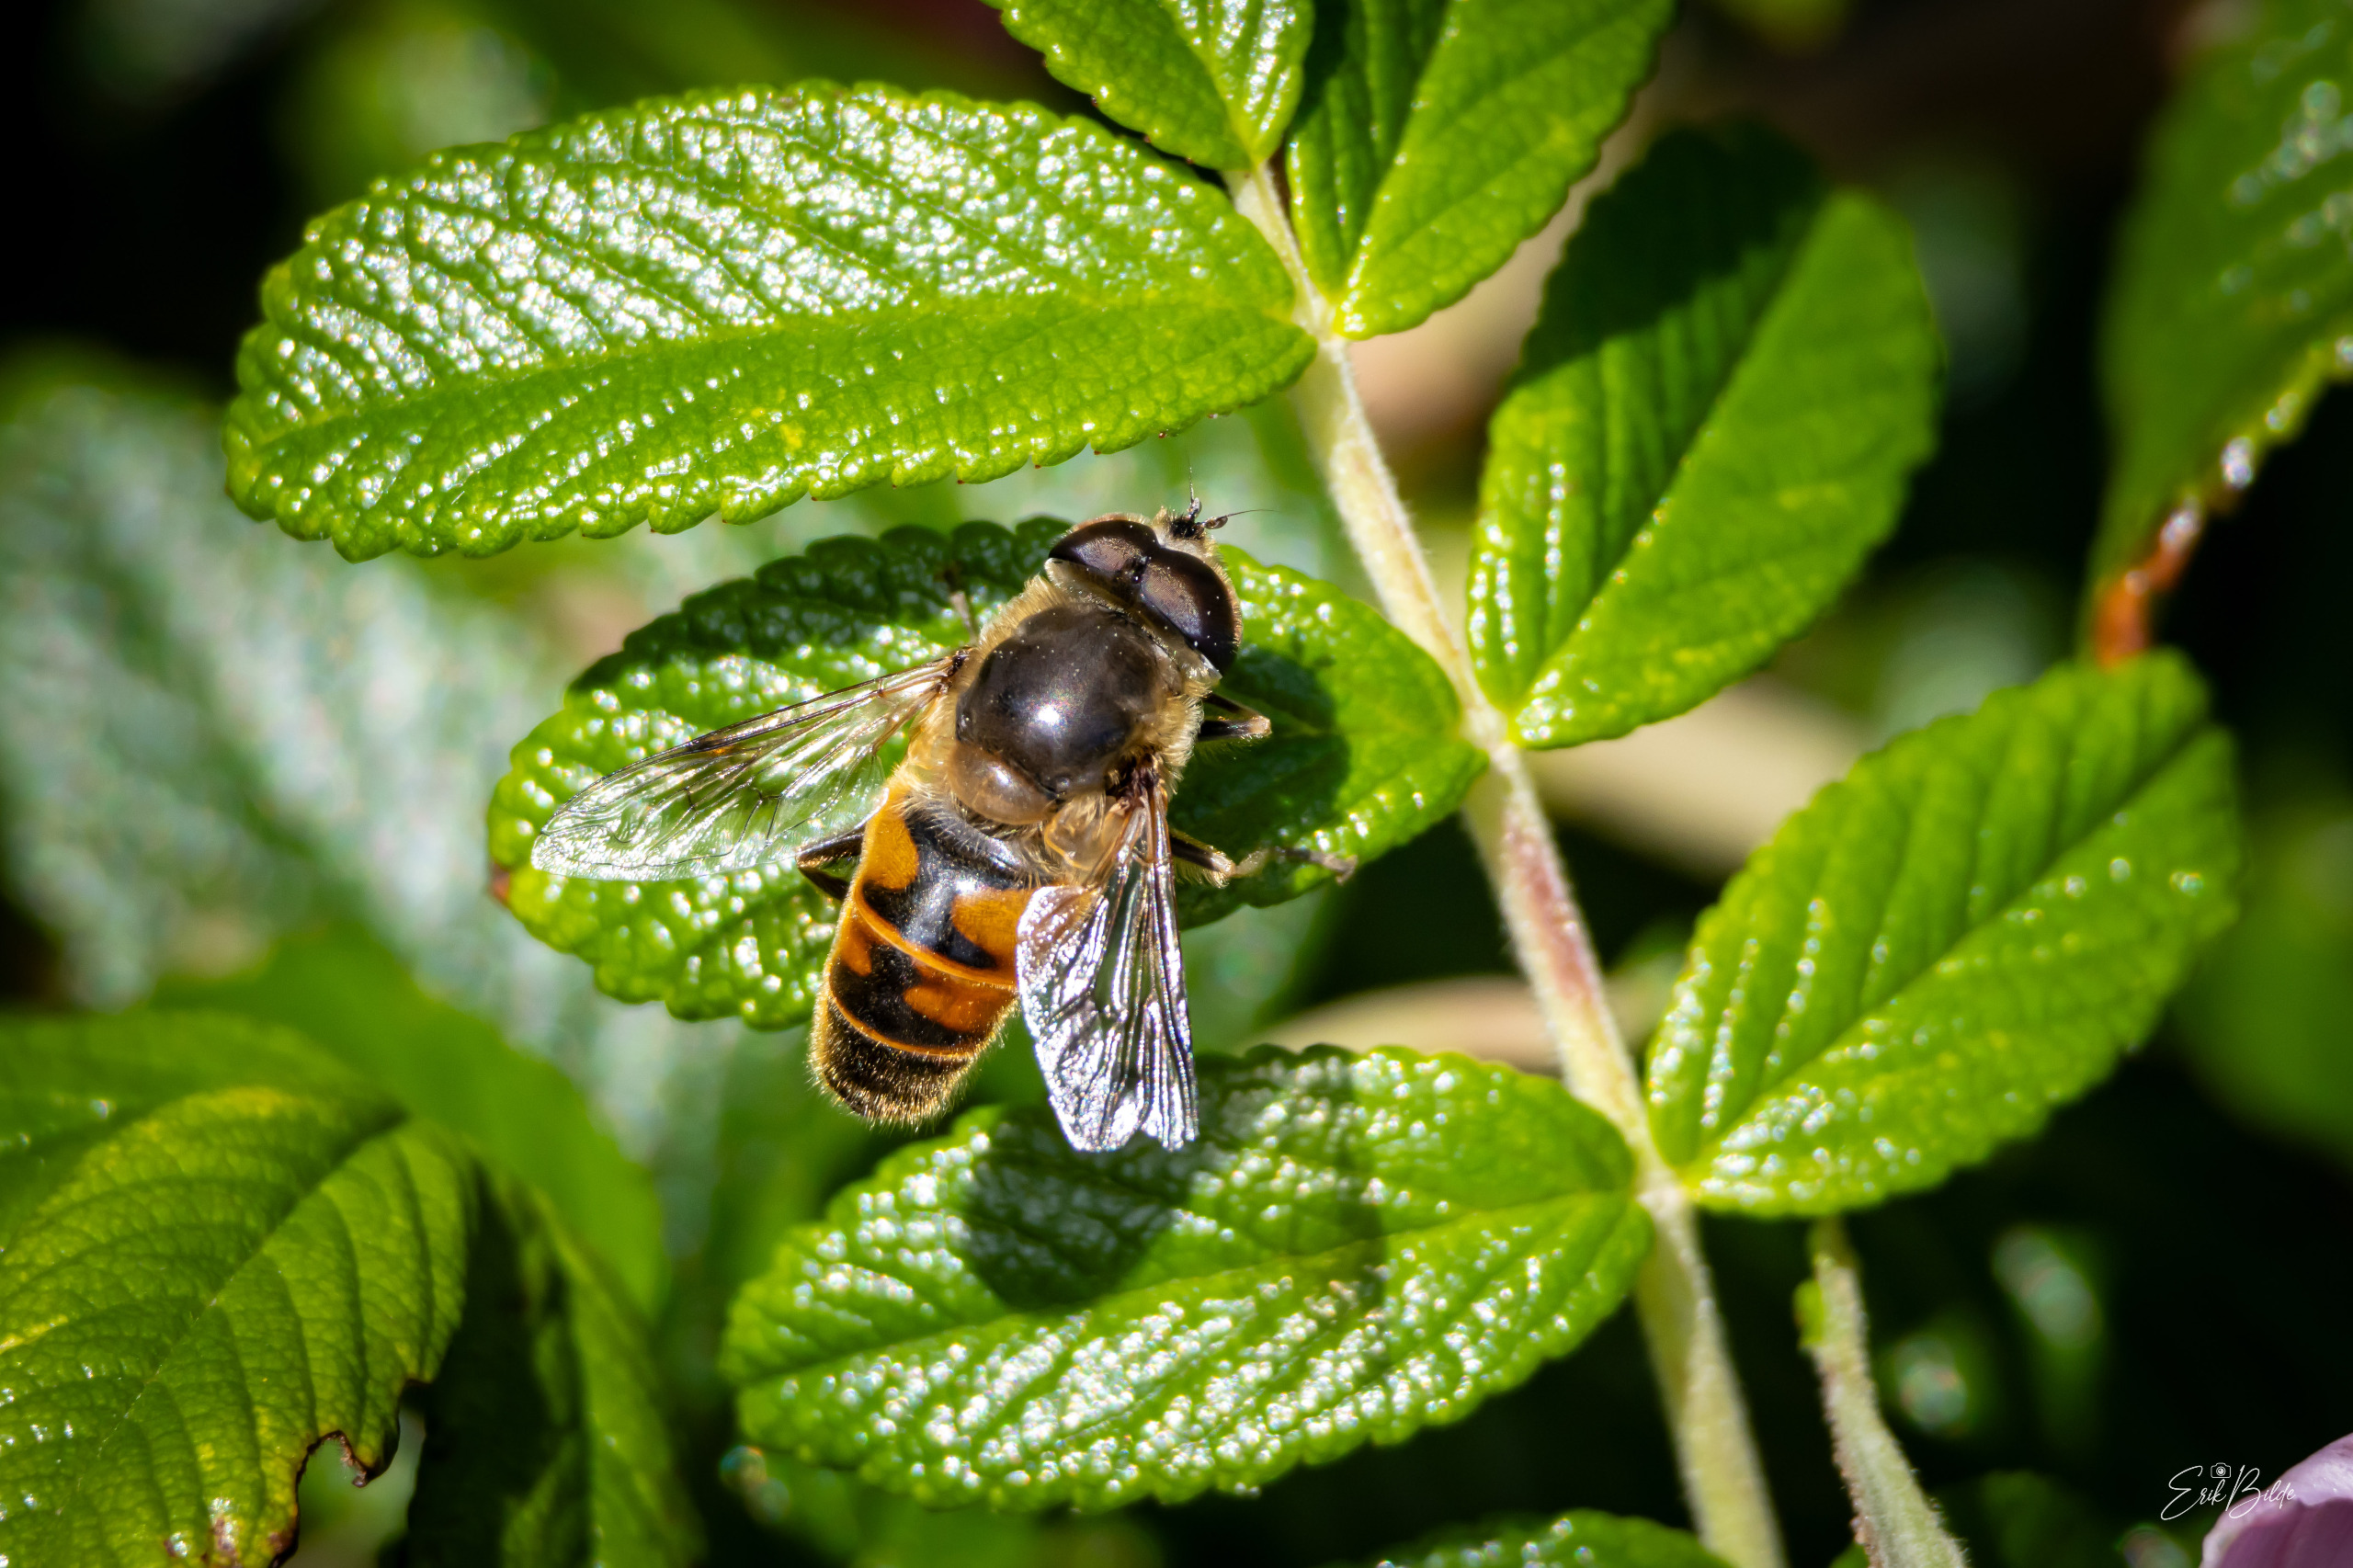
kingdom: Animalia
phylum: Arthropoda
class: Insecta
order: Diptera
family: Syrphidae
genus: Eristalis
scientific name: Eristalis tenax
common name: Droneflue
